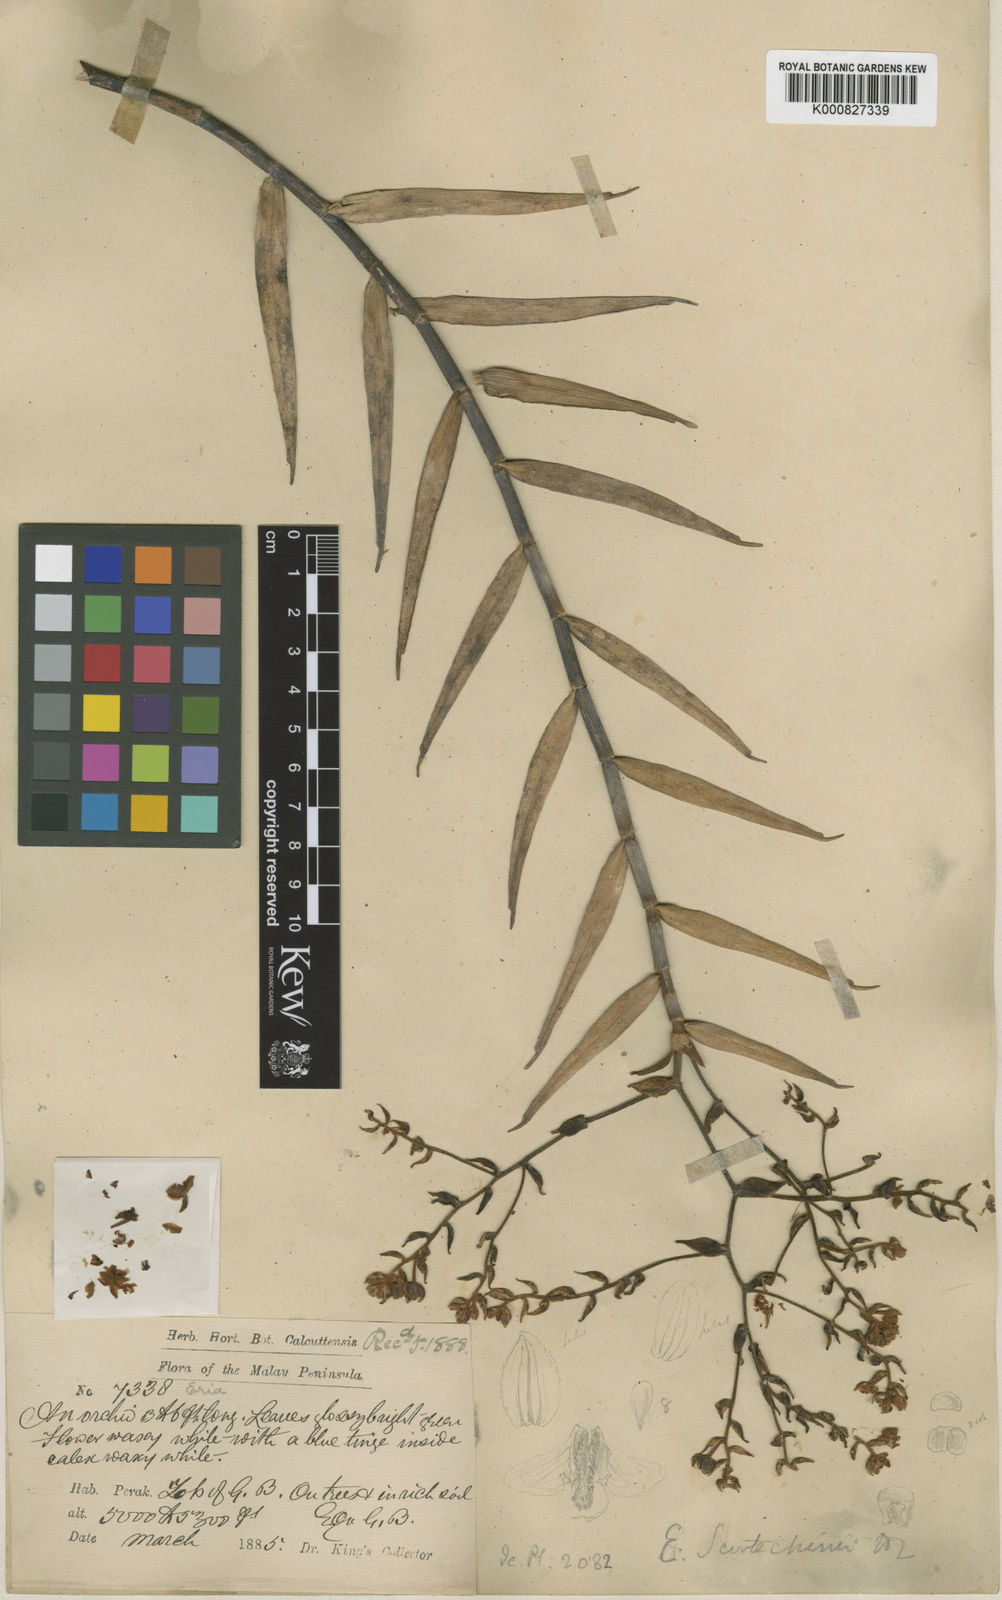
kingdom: Plantae
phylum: Tracheophyta
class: Liliopsida
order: Asparagales
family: Orchidaceae
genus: Dilochiopsis
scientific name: Dilochiopsis scortechinii
